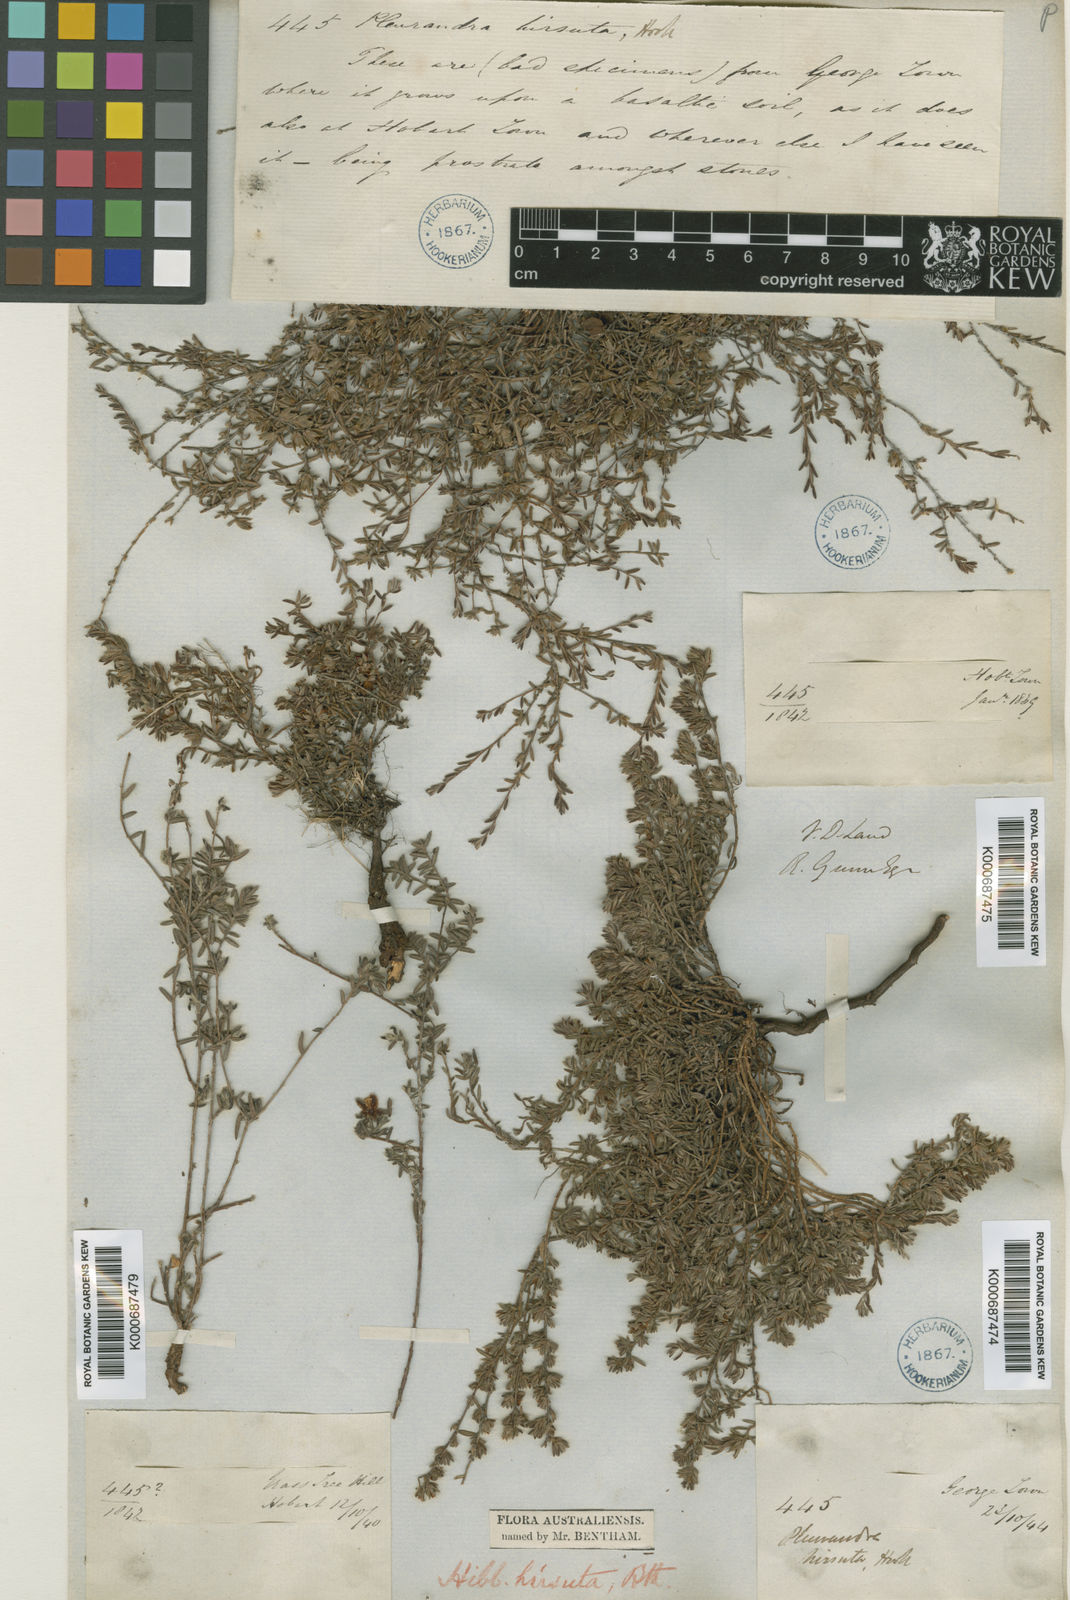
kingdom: Plantae
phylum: Tracheophyta
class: Magnoliopsida
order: Dilleniales
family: Dilleniaceae
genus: Hibbertia
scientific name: Hibbertia hirsuta
